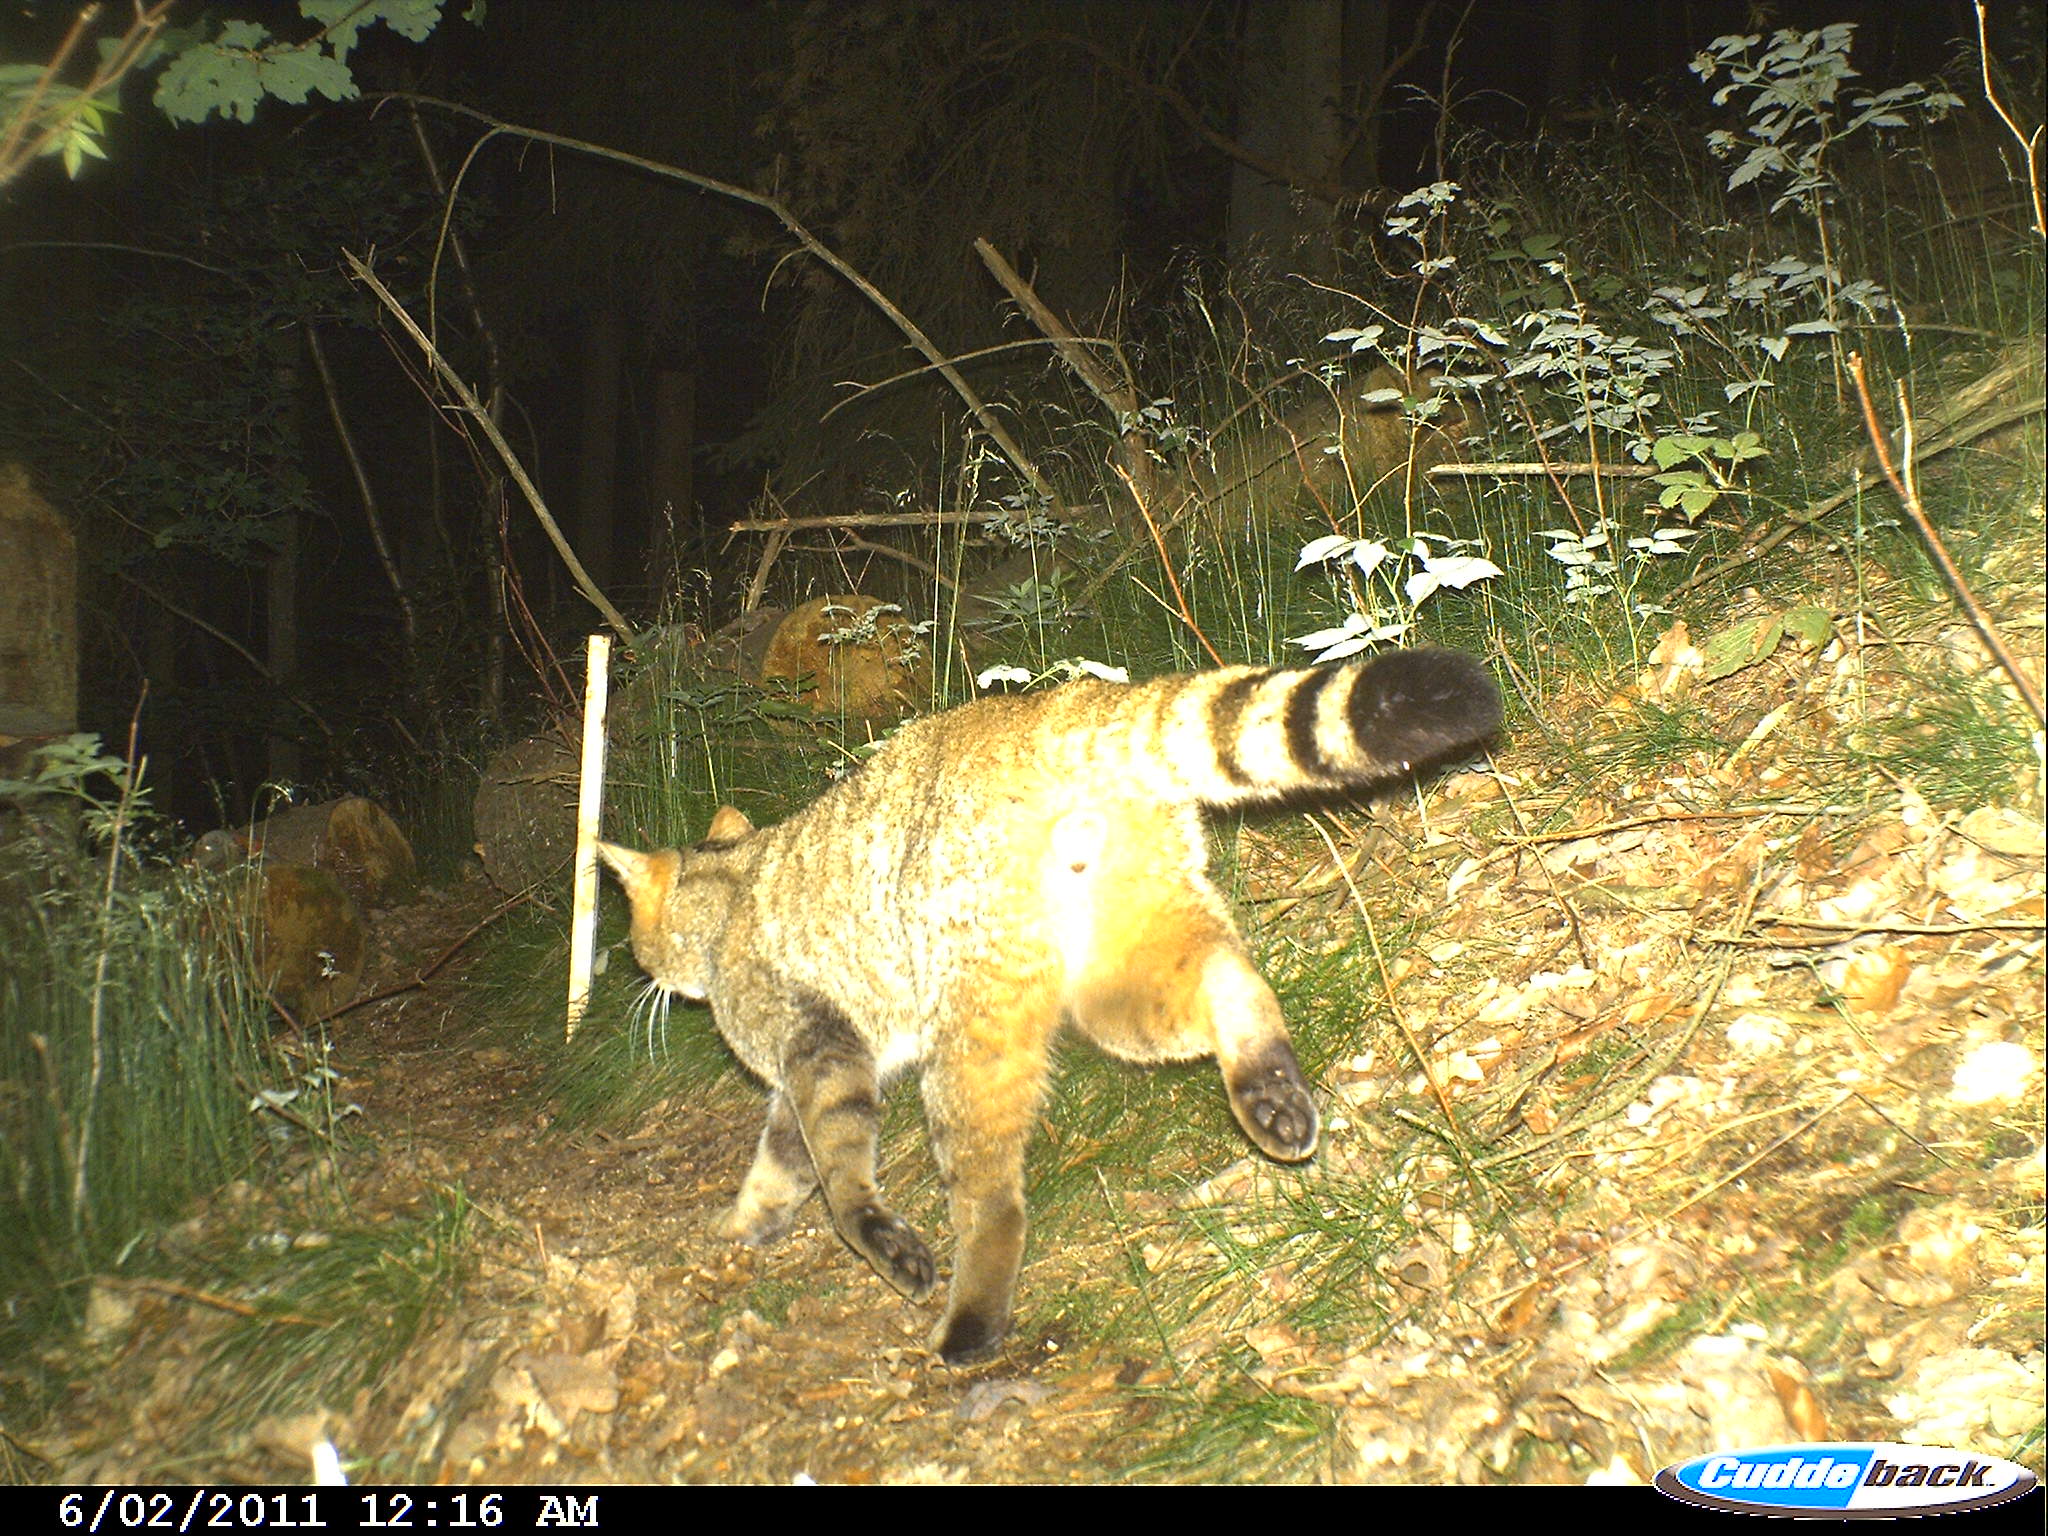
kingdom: Animalia
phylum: Chordata
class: Mammalia
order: Carnivora
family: Felidae
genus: Felis
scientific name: Felis silvestris
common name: Wildcat
